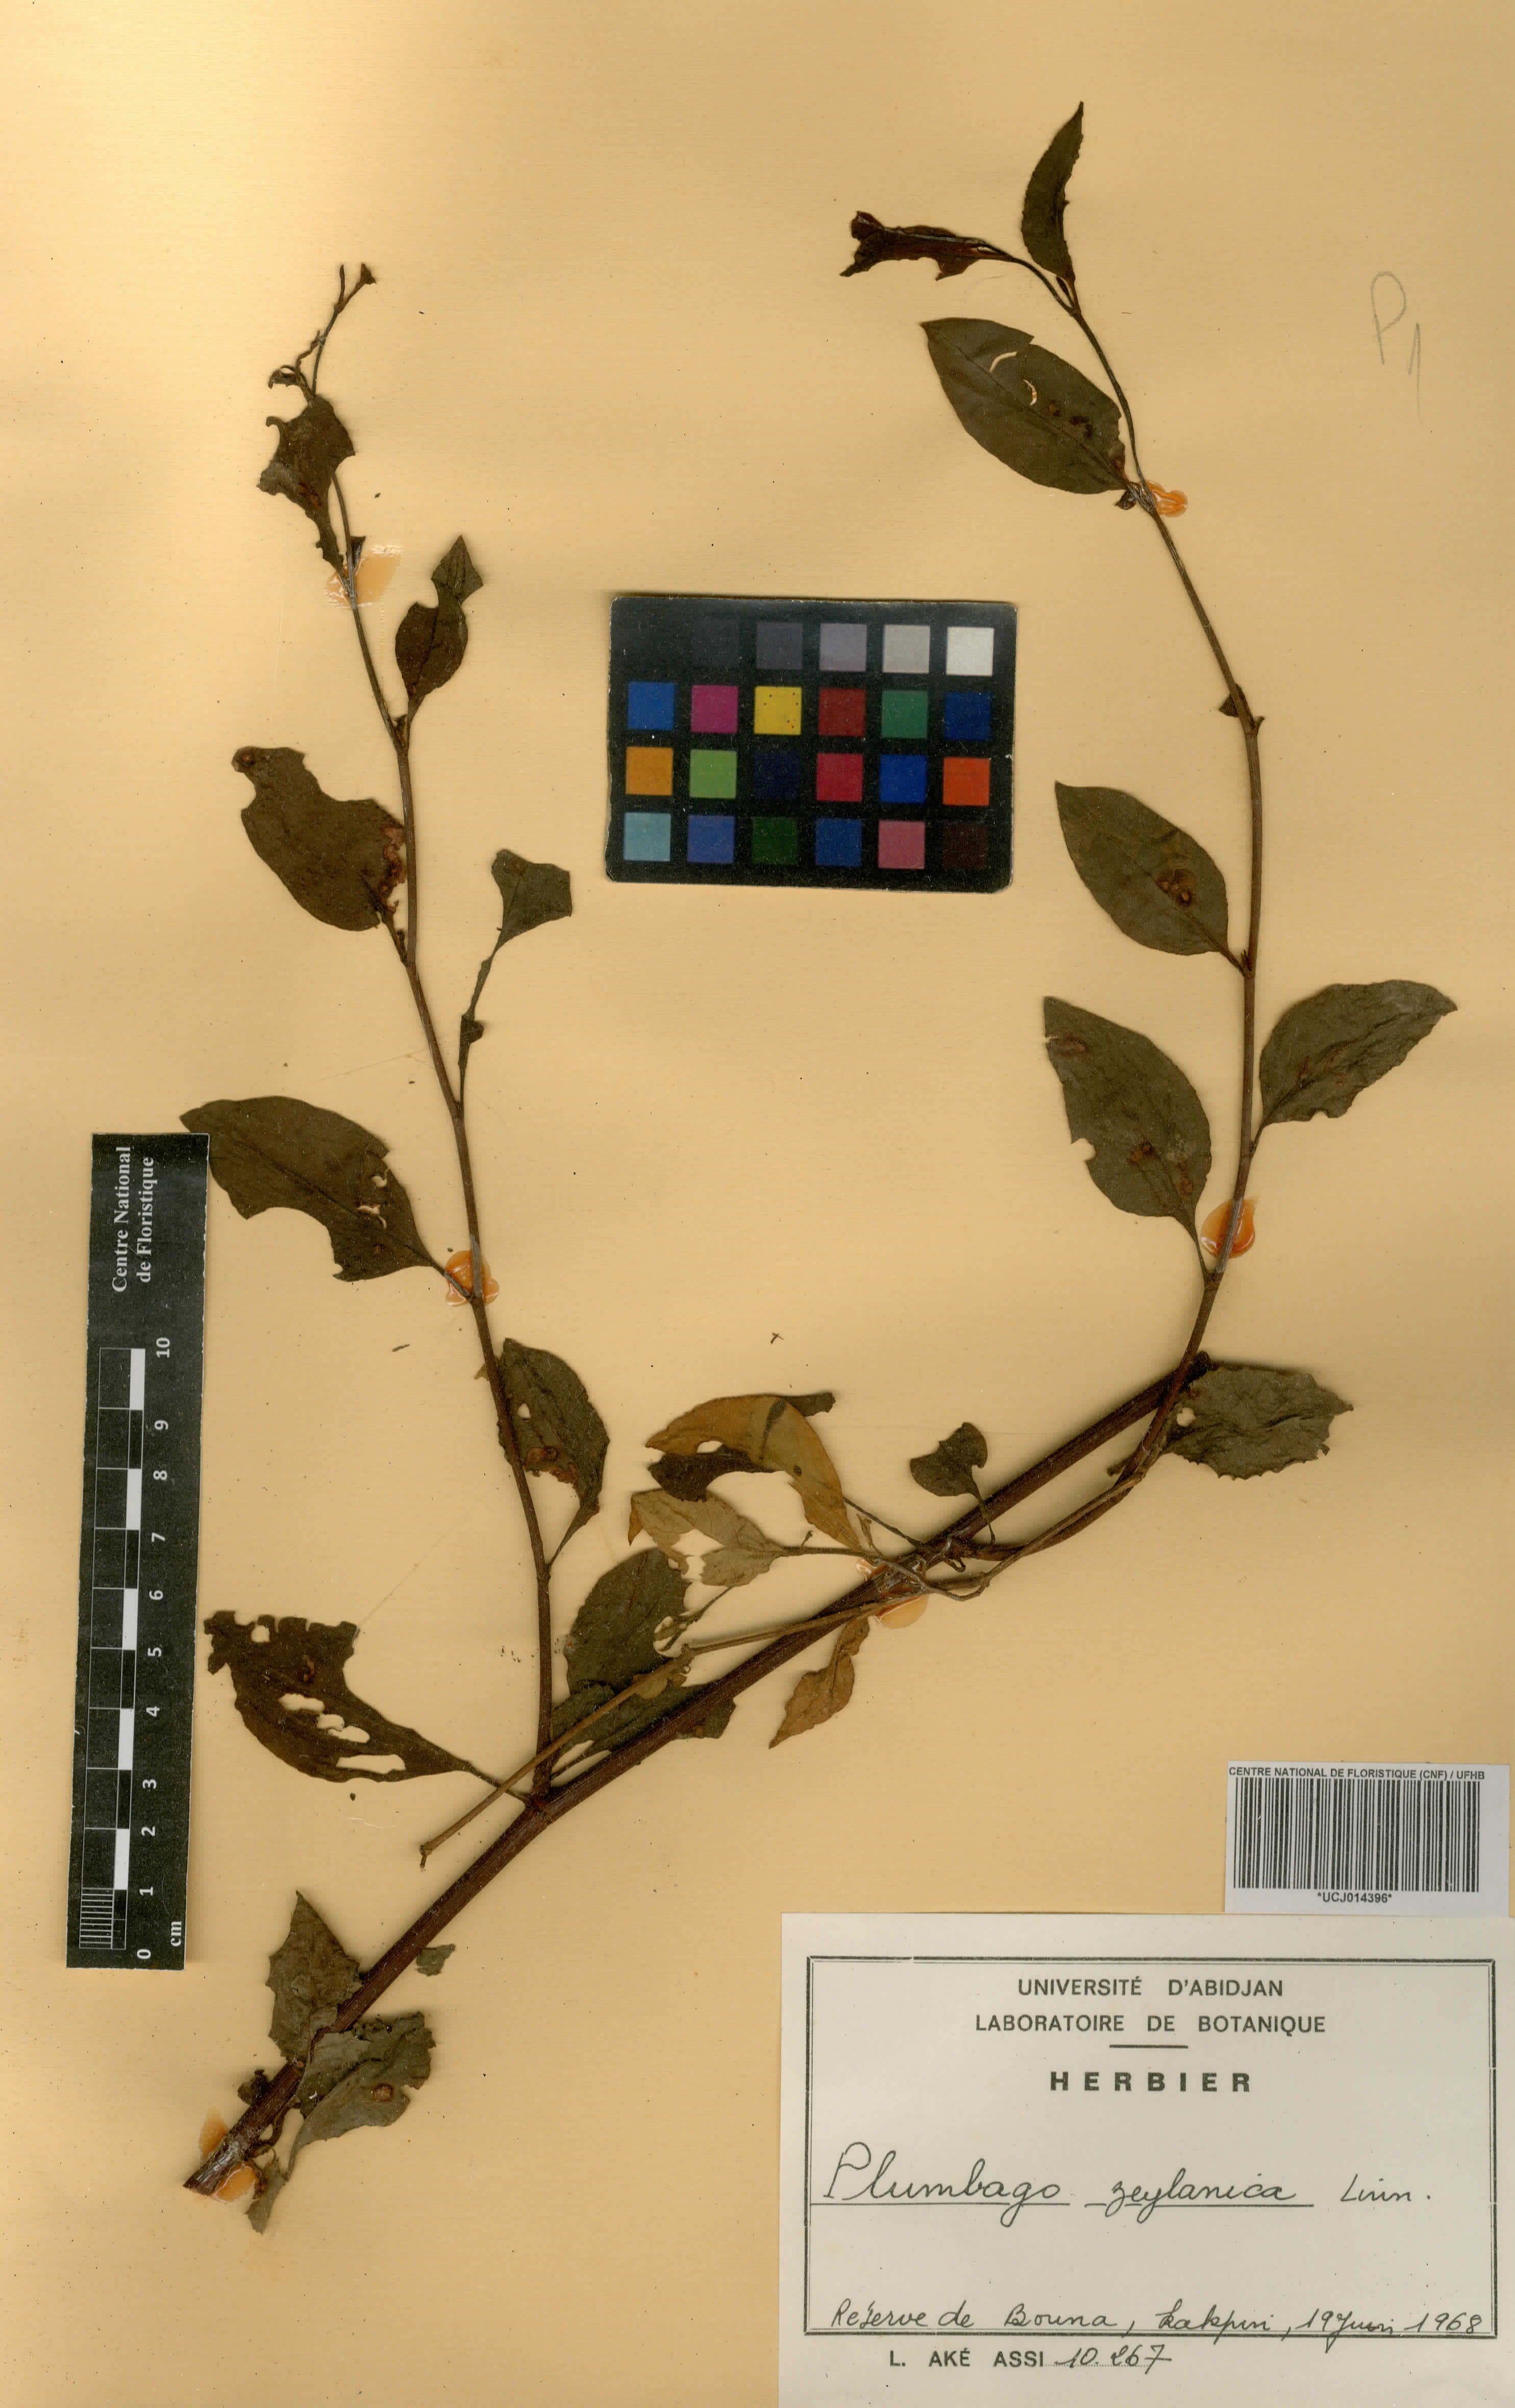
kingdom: Plantae
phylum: Tracheophyta
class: Magnoliopsida
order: Caryophyllales
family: Plumbaginaceae
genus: Plumbago
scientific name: Plumbago zeylanica
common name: Doctorbush
